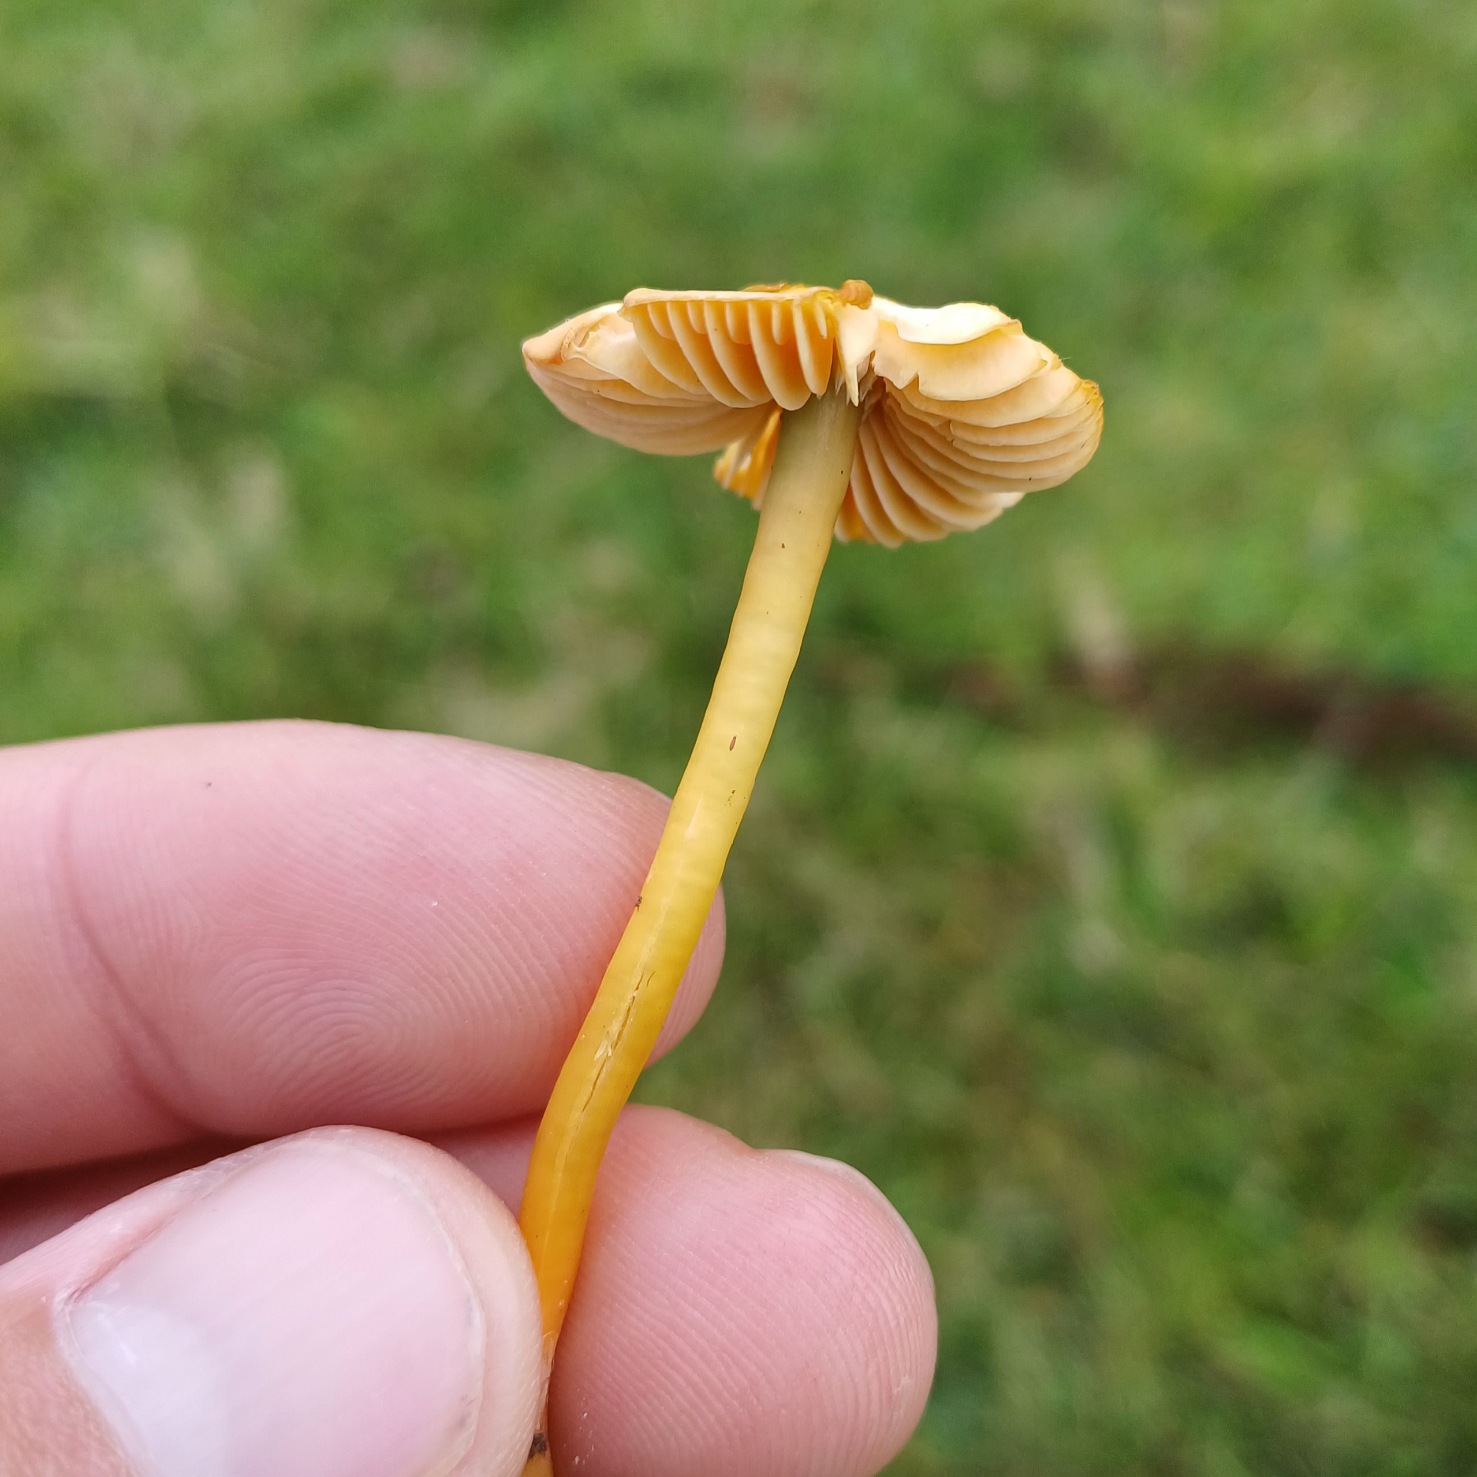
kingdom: Fungi
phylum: Basidiomycota
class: Agaricomycetes
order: Agaricales
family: Hygrophoraceae
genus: Gliophorus
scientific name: Gliophorus psittacinus
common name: Papegøje-vokshat
